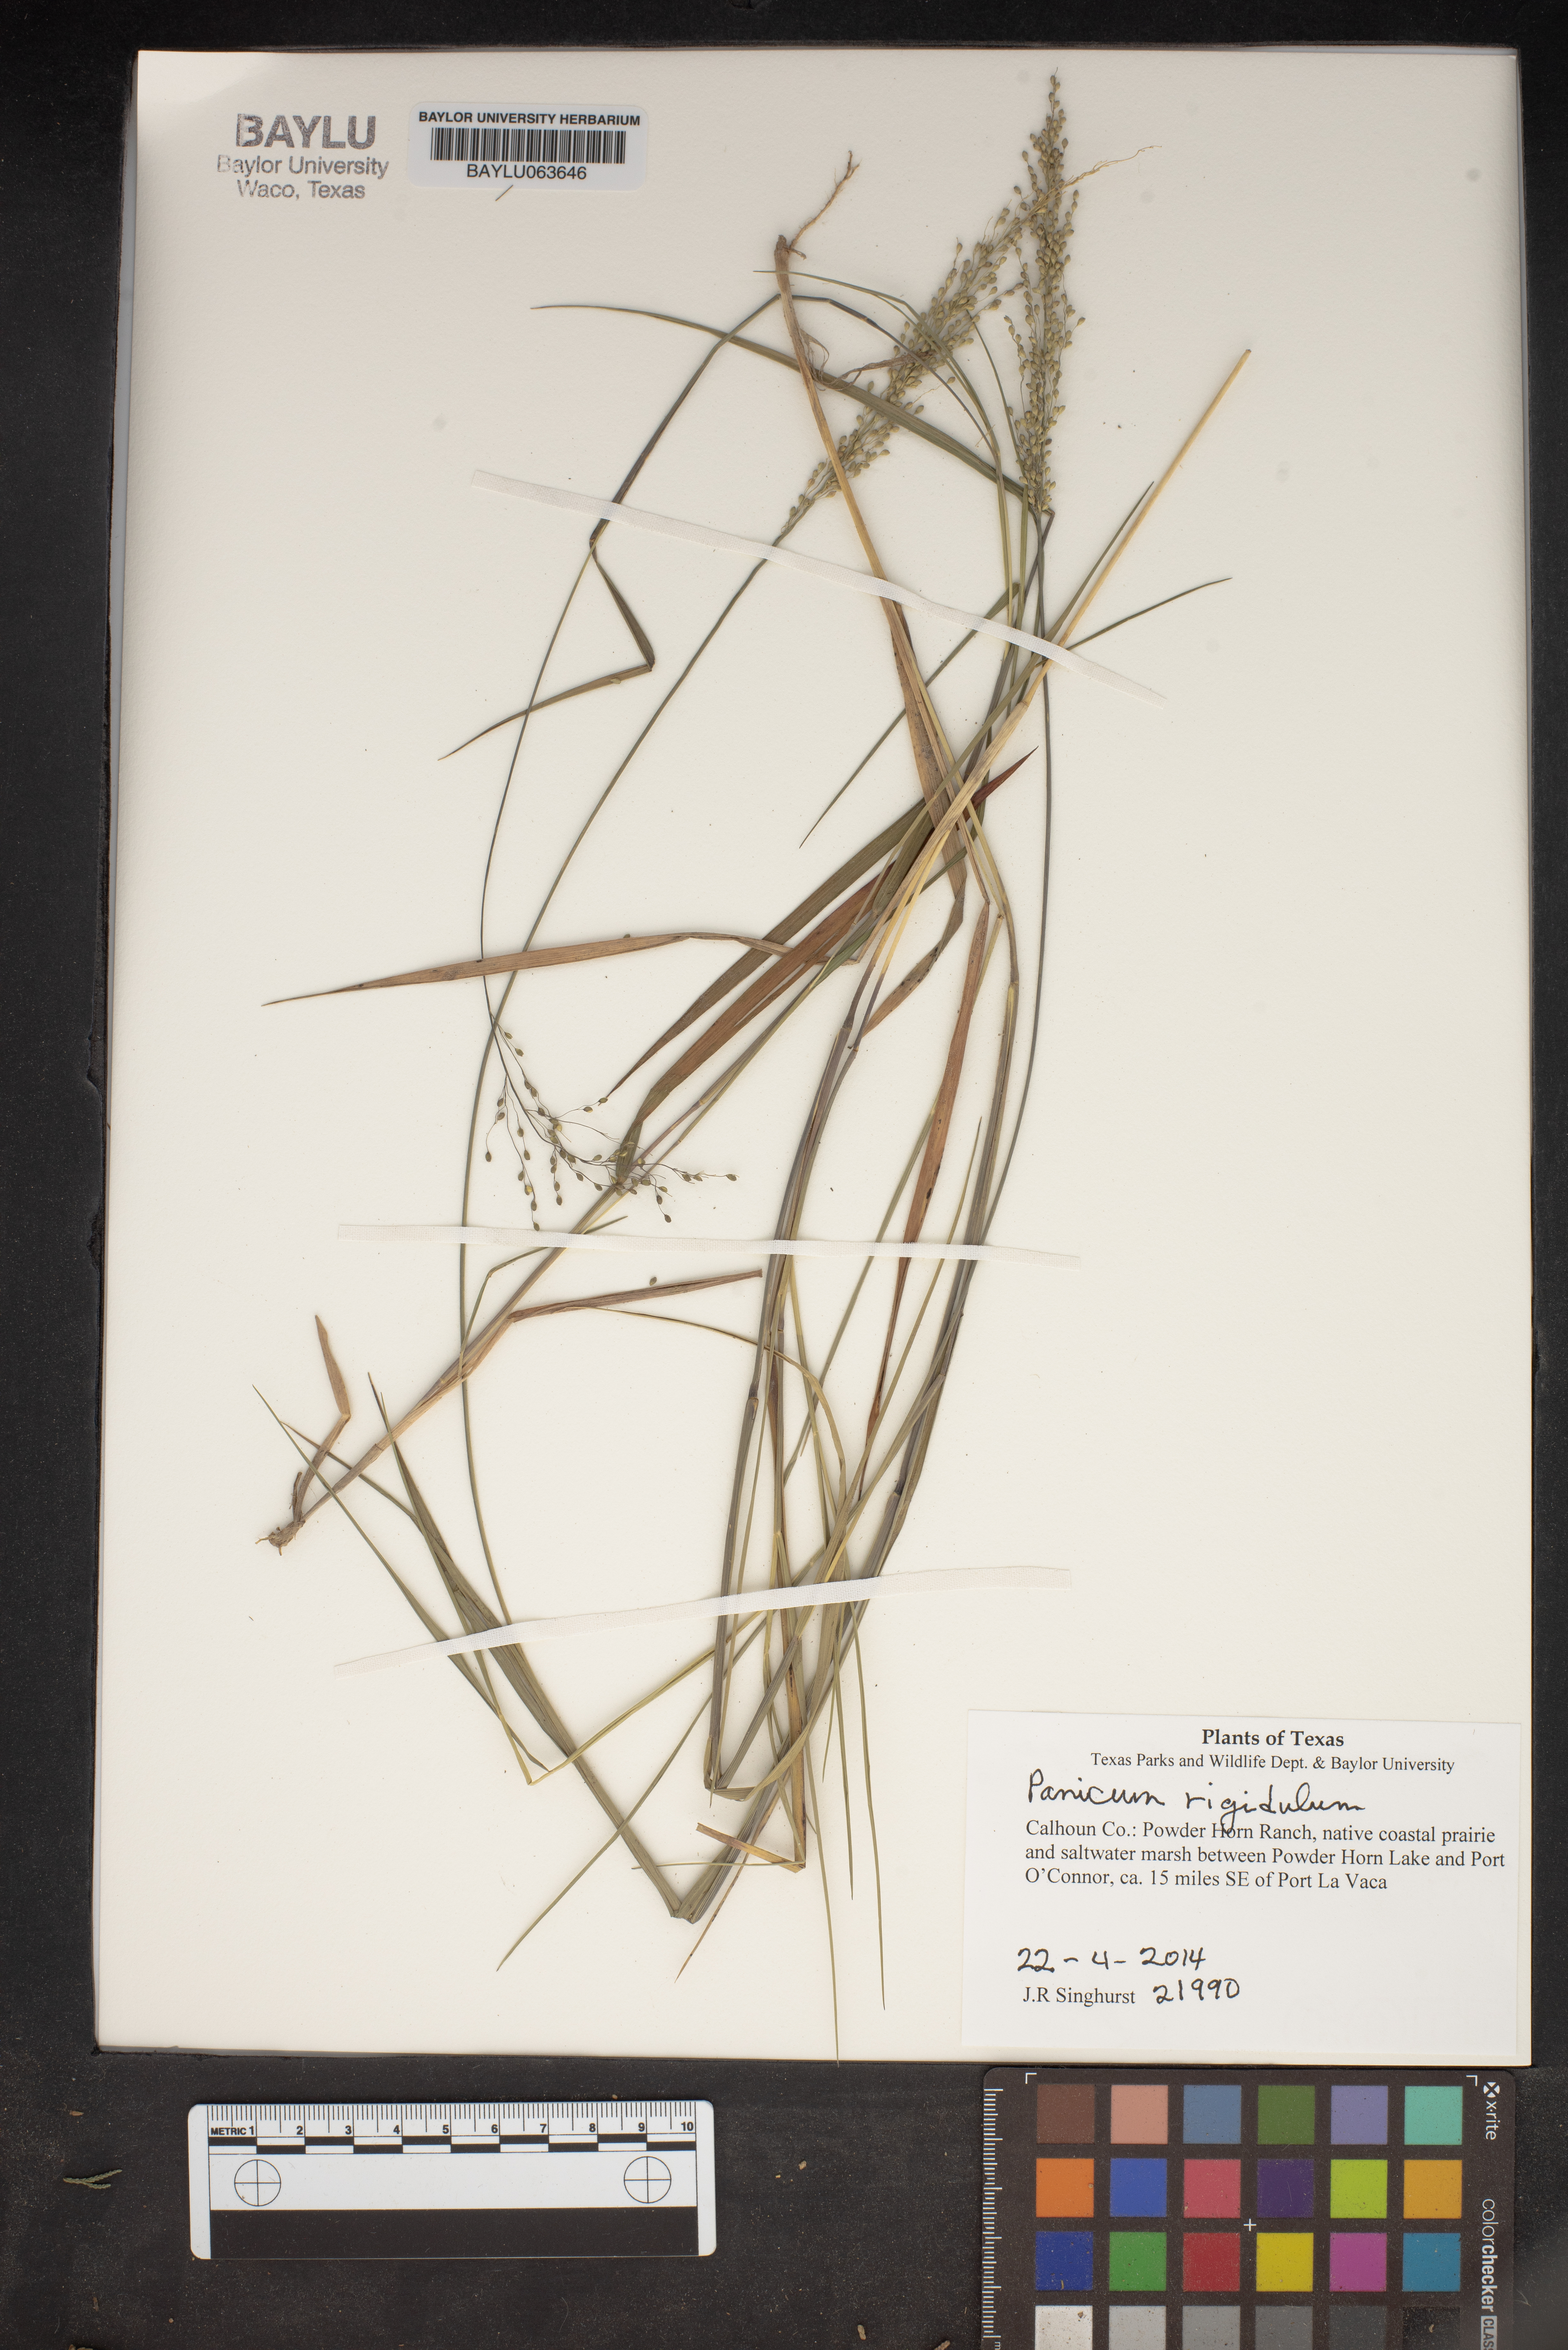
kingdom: Plantae
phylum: Tracheophyta
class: Liliopsida
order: Poales
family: Poaceae
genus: Coleataenia
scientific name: Coleataenia rigidula
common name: Redtop panicgrass
